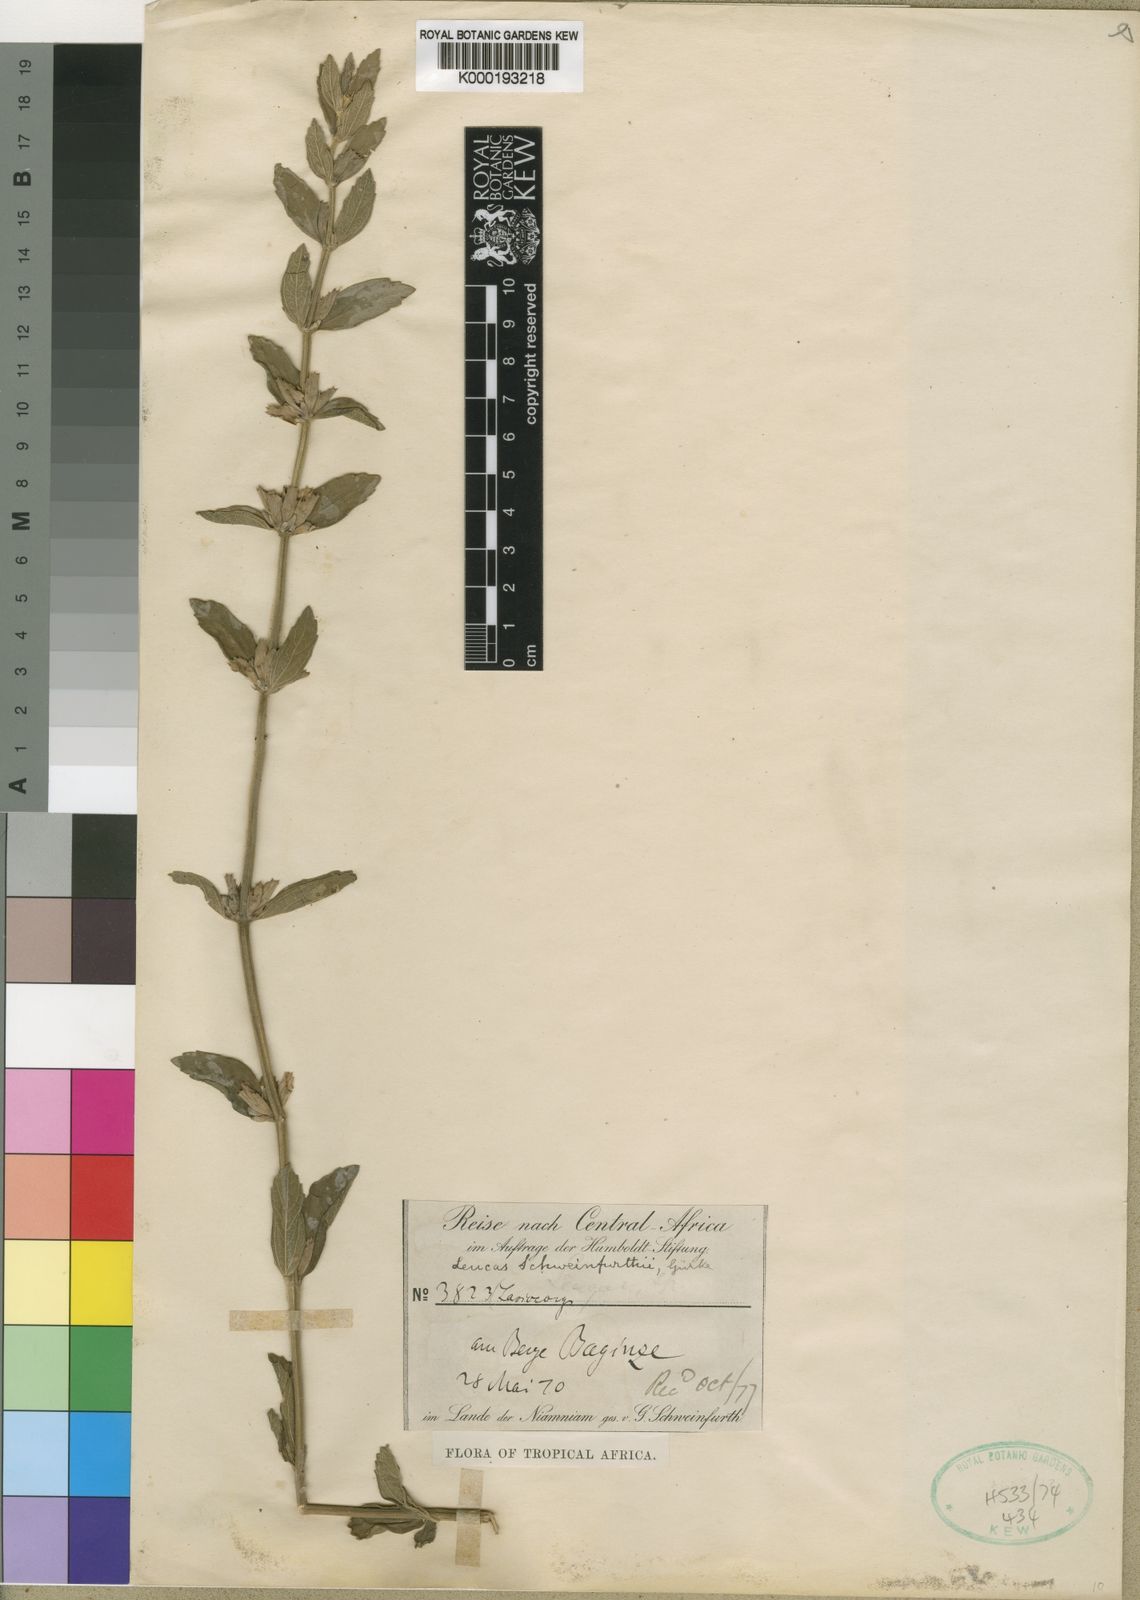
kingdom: Plantae
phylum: Tracheophyta
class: Magnoliopsida
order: Lamiales
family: Lamiaceae
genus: Leucas
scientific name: Leucas
